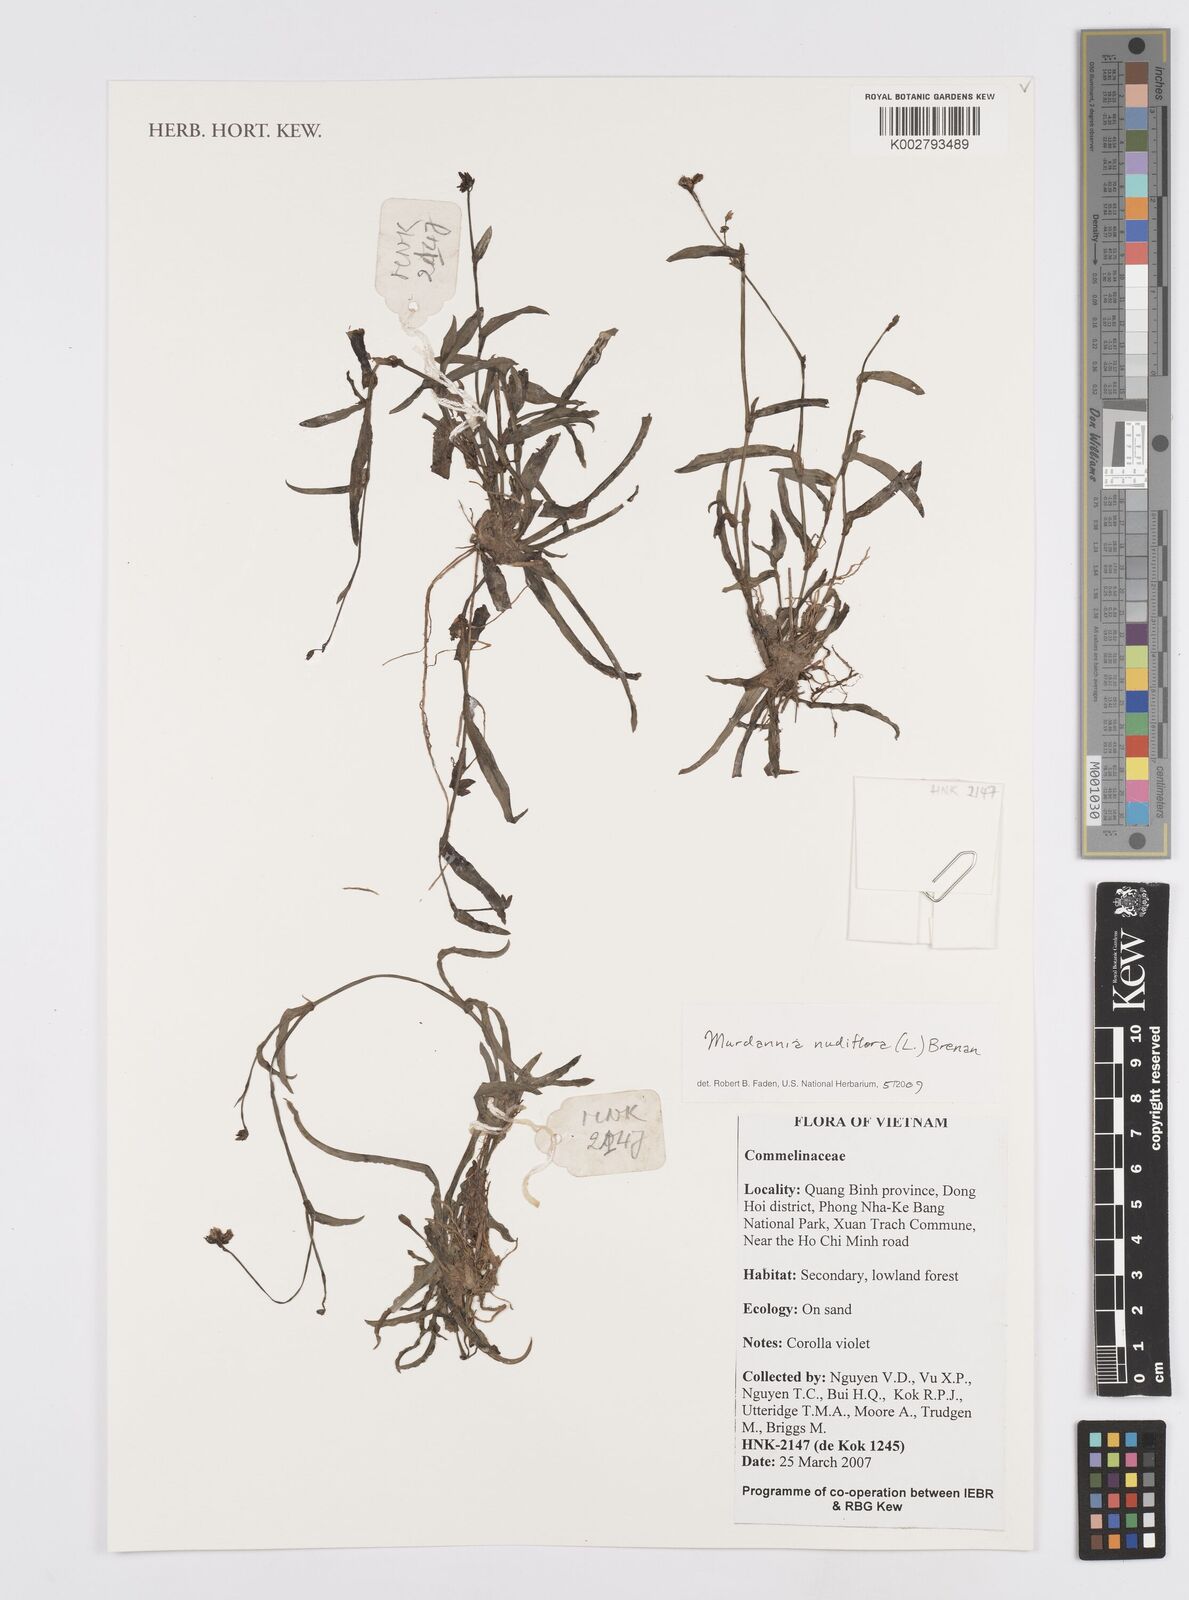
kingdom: Plantae
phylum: Tracheophyta
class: Liliopsida
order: Commelinales
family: Commelinaceae
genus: Murdannia
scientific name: Murdannia nudiflora
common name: Nakedstem dewflower
